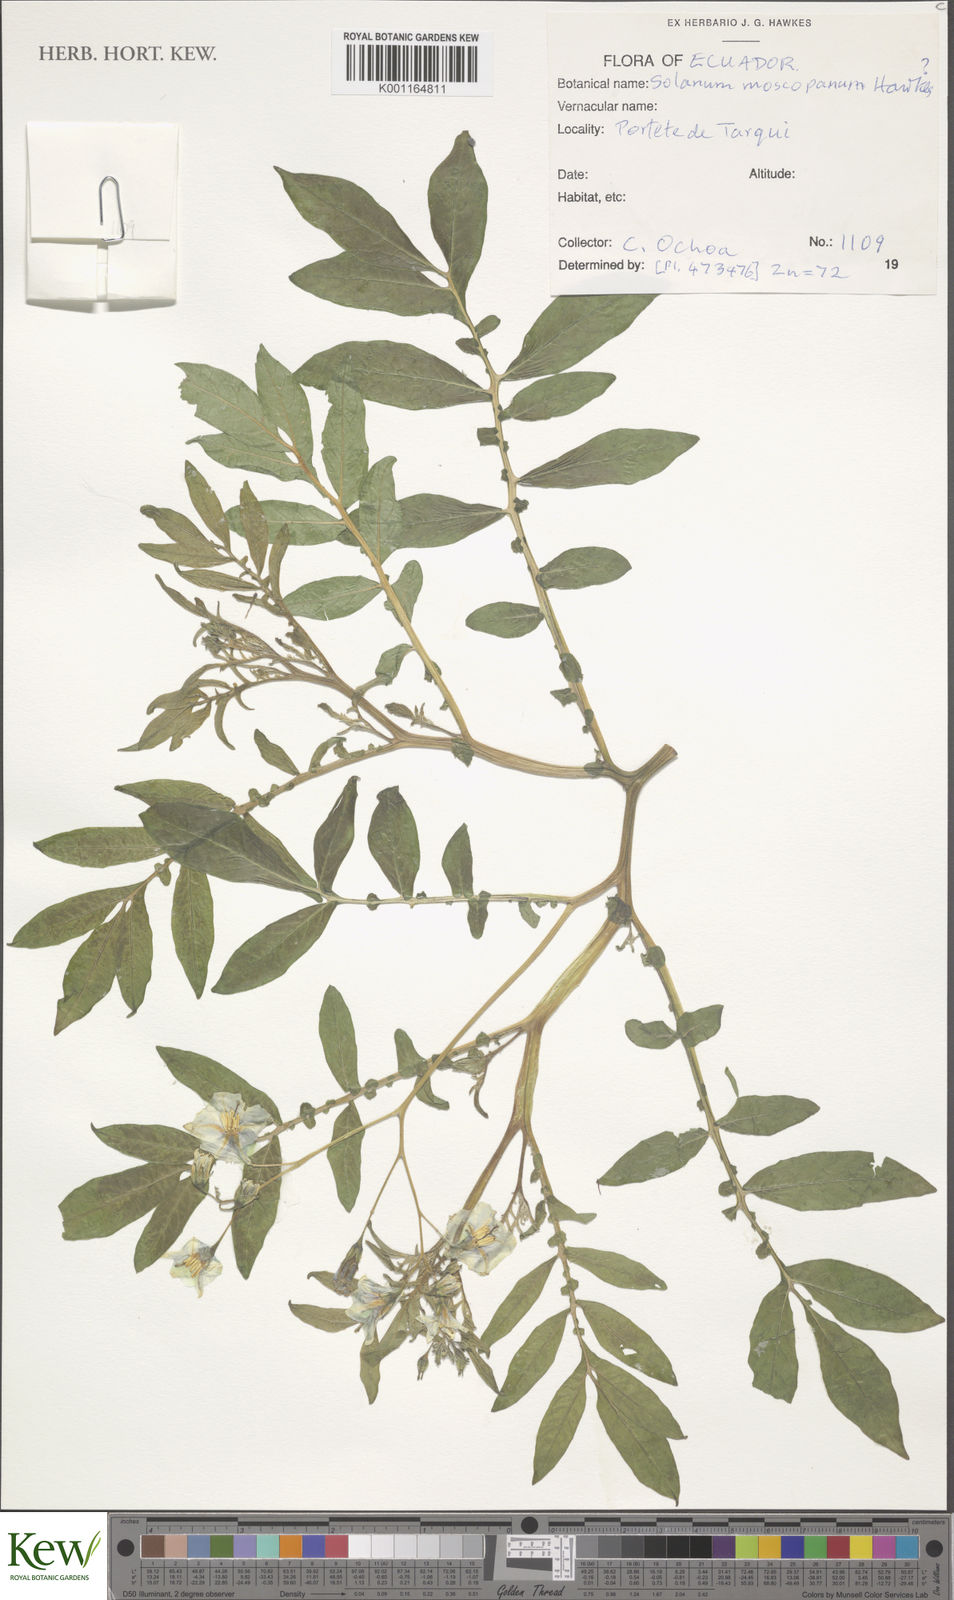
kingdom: Plantae
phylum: Tracheophyta
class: Magnoliopsida
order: Solanales
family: Solanaceae
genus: Solanum
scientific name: Solanum colombianum
